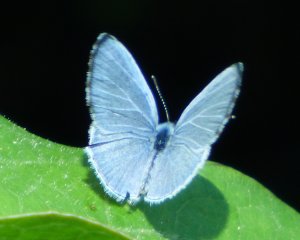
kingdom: Animalia
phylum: Arthropoda
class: Insecta
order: Lepidoptera
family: Lycaenidae
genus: Cyaniris
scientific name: Cyaniris neglecta
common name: Summer Azure
